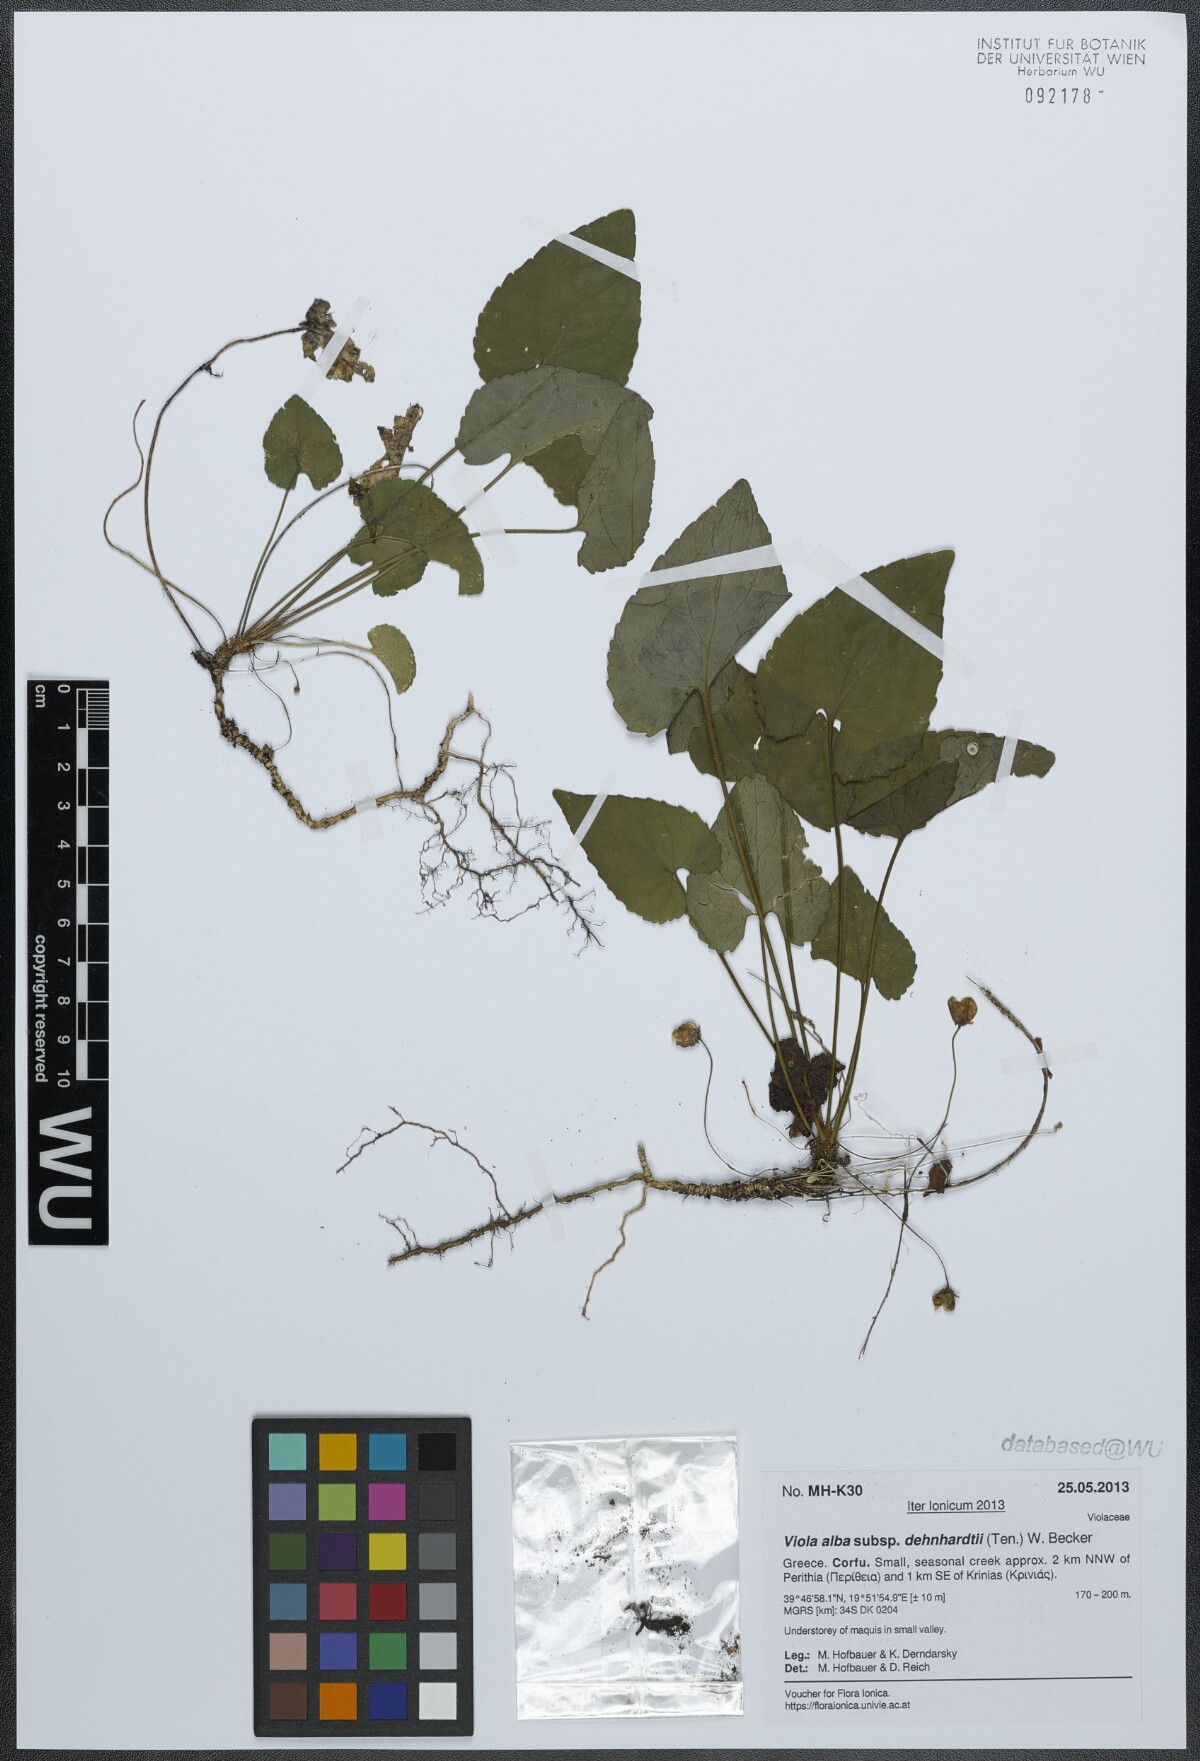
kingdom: Plantae
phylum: Tracheophyta
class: Magnoliopsida
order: Malpighiales
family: Violaceae
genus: Viola
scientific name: Viola alba
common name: White violet
